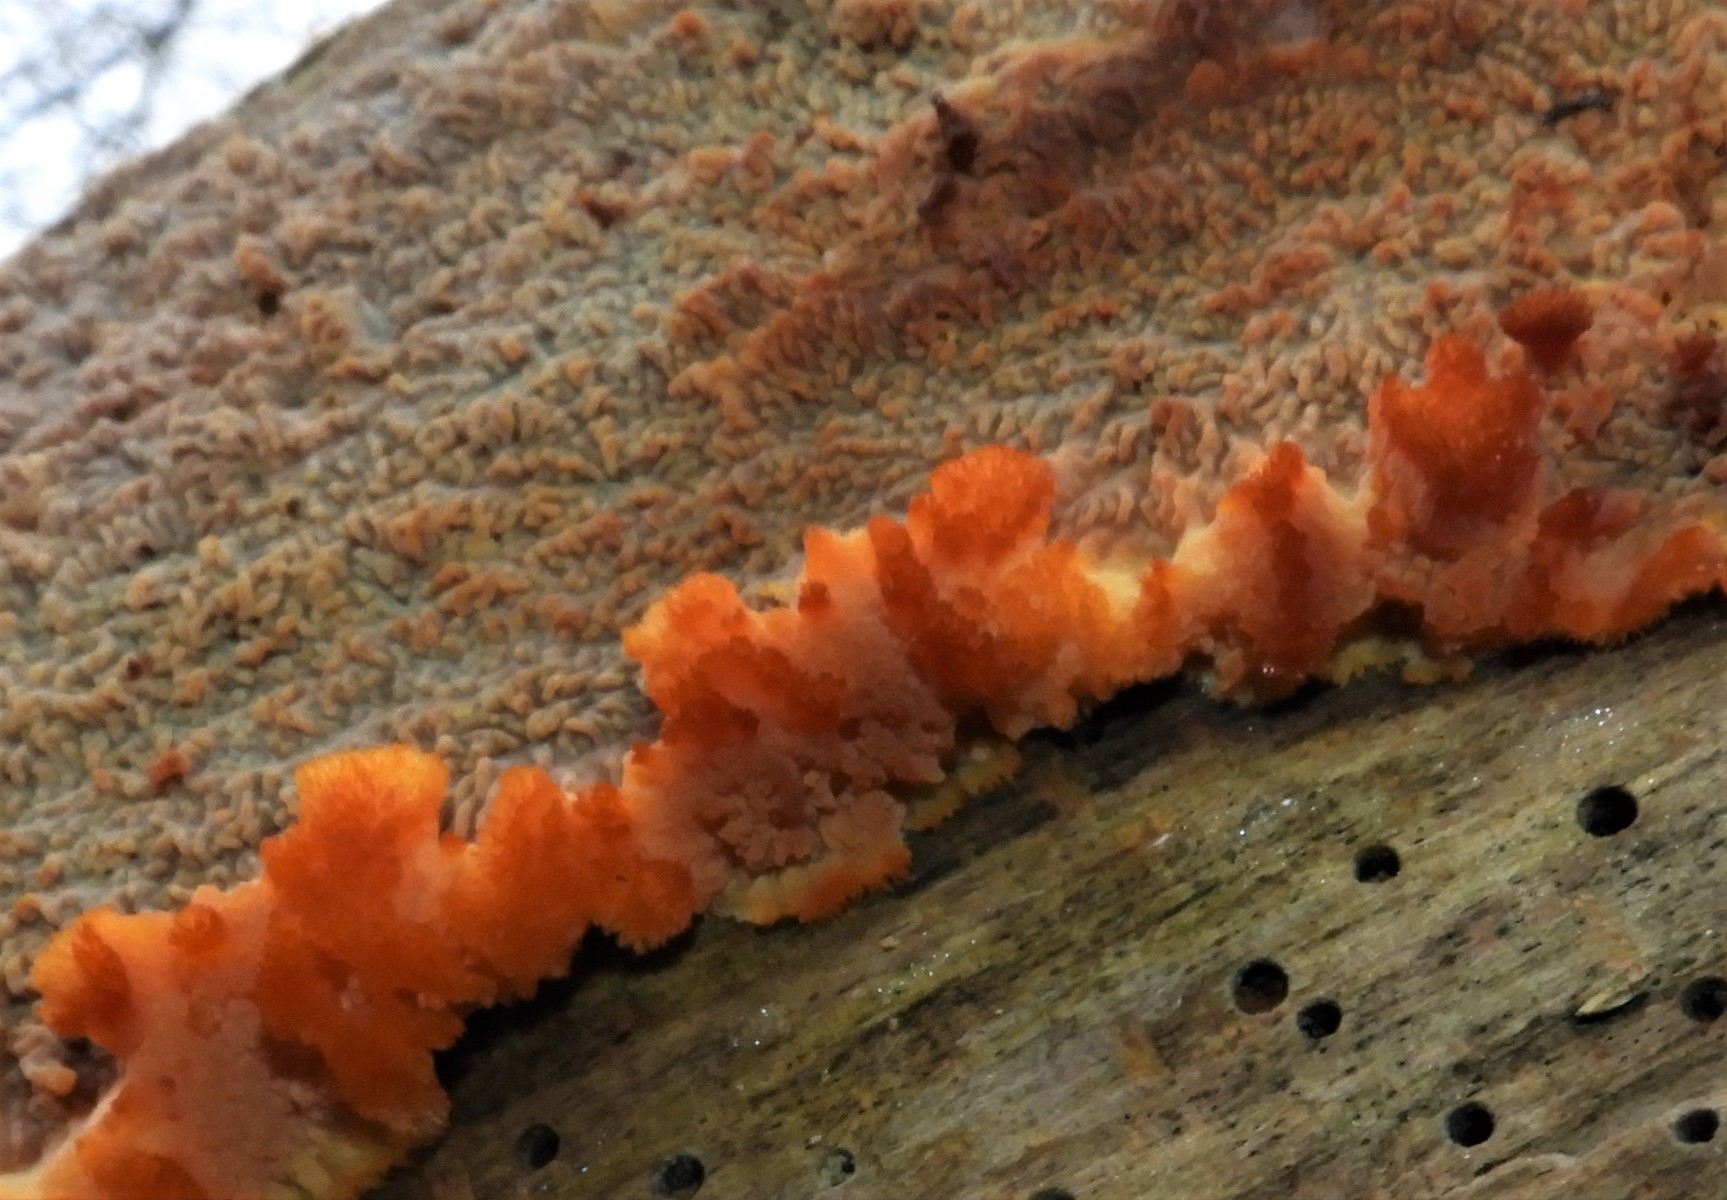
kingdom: Fungi
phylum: Basidiomycota
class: Agaricomycetes
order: Polyporales
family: Meruliaceae
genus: Phlebia
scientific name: Phlebia radiata
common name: stråle-åresvamp
